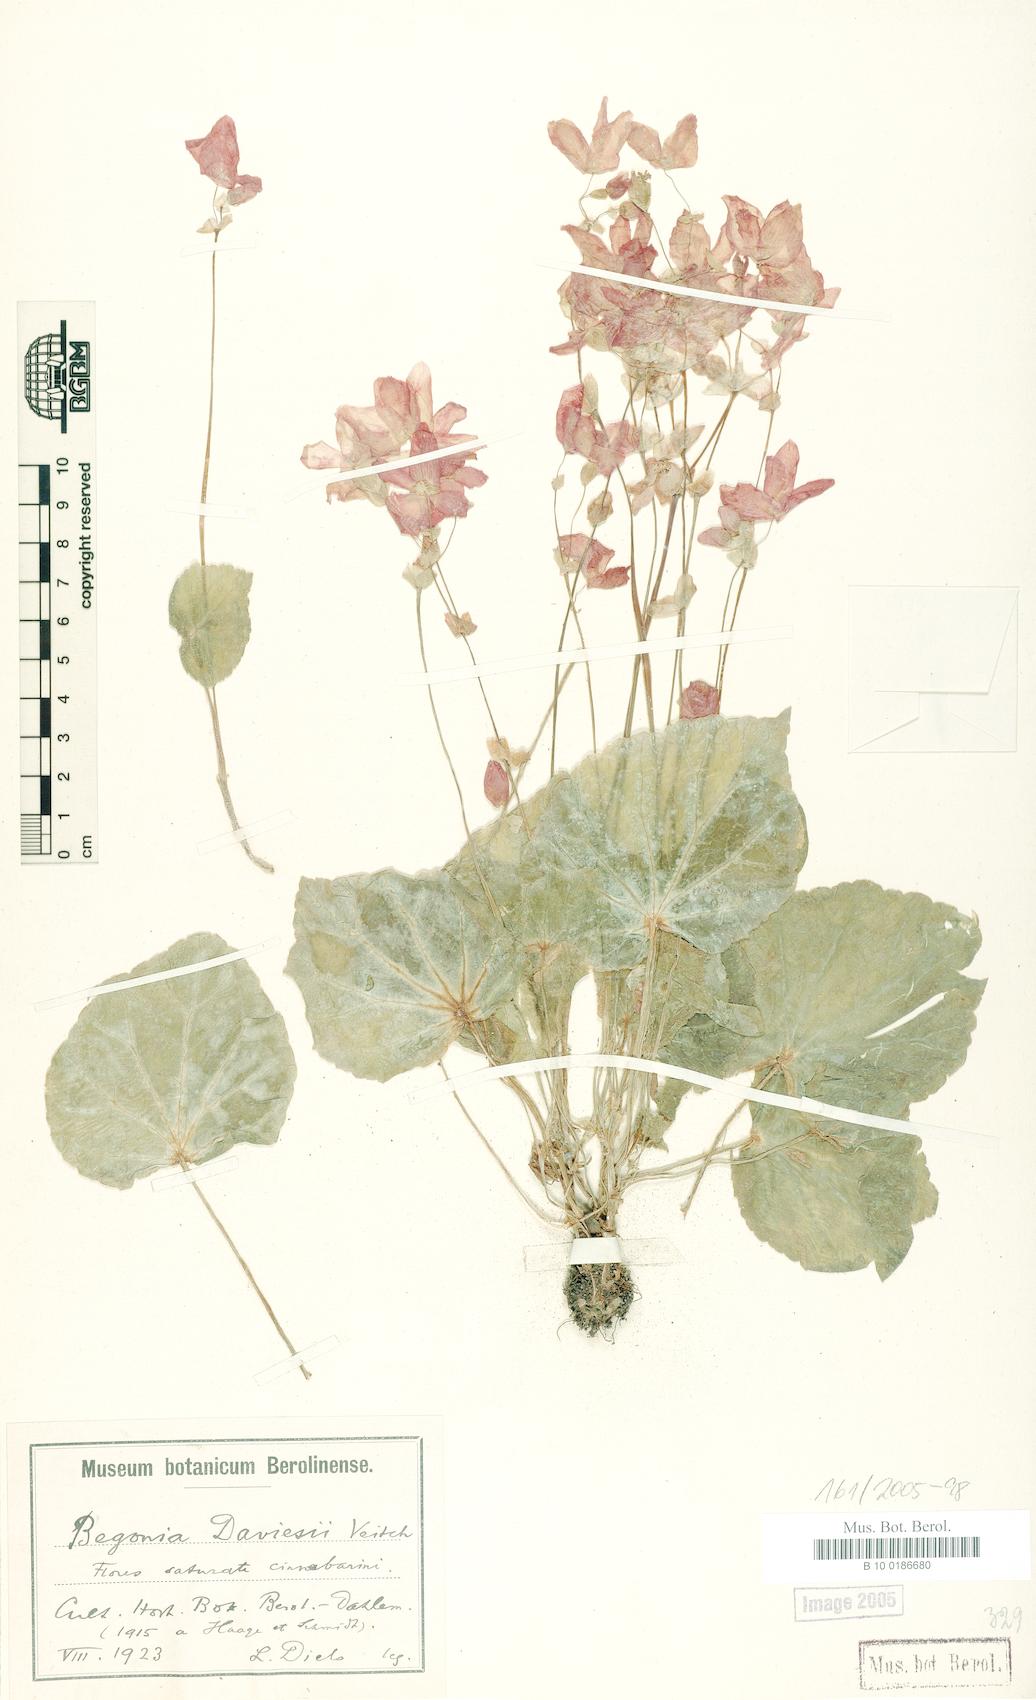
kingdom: Plantae
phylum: Tracheophyta
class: Magnoliopsida
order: Cucurbitales
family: Begoniaceae
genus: Begonia
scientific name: Begonia weddeliana
